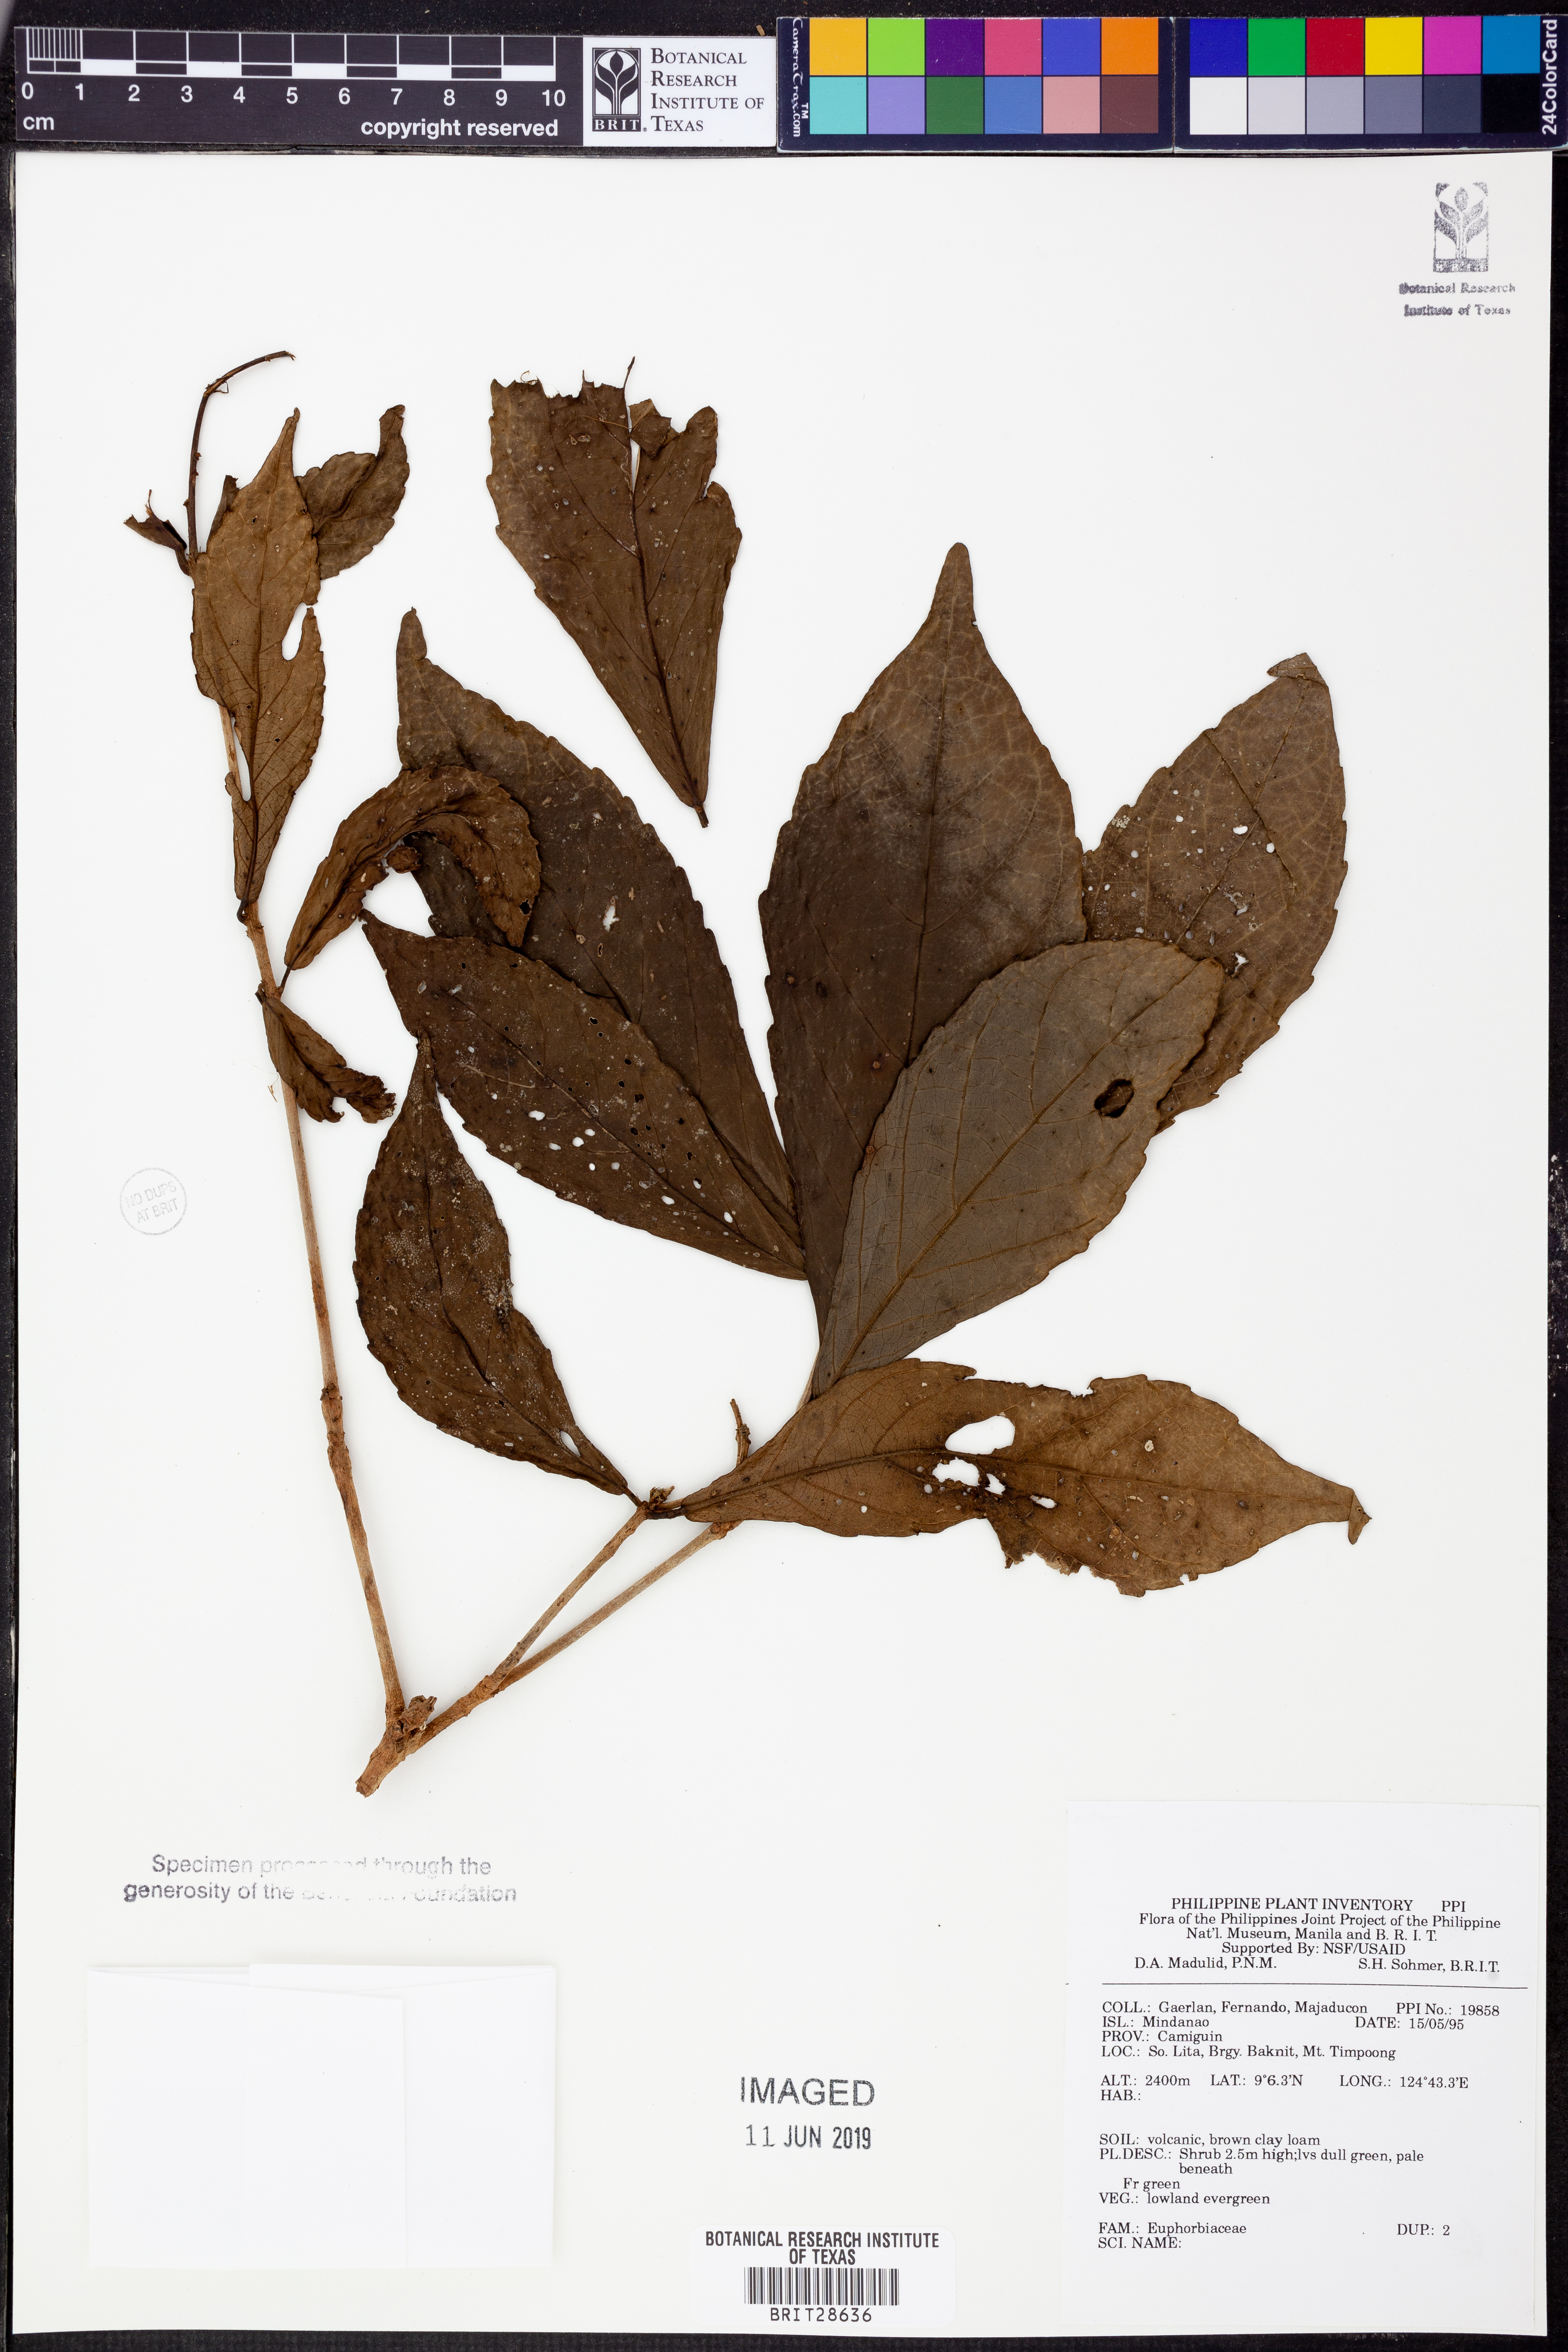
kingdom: Plantae
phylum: Tracheophyta
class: Magnoliopsida
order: Malpighiales
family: Euphorbiaceae
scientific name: Euphorbiaceae
